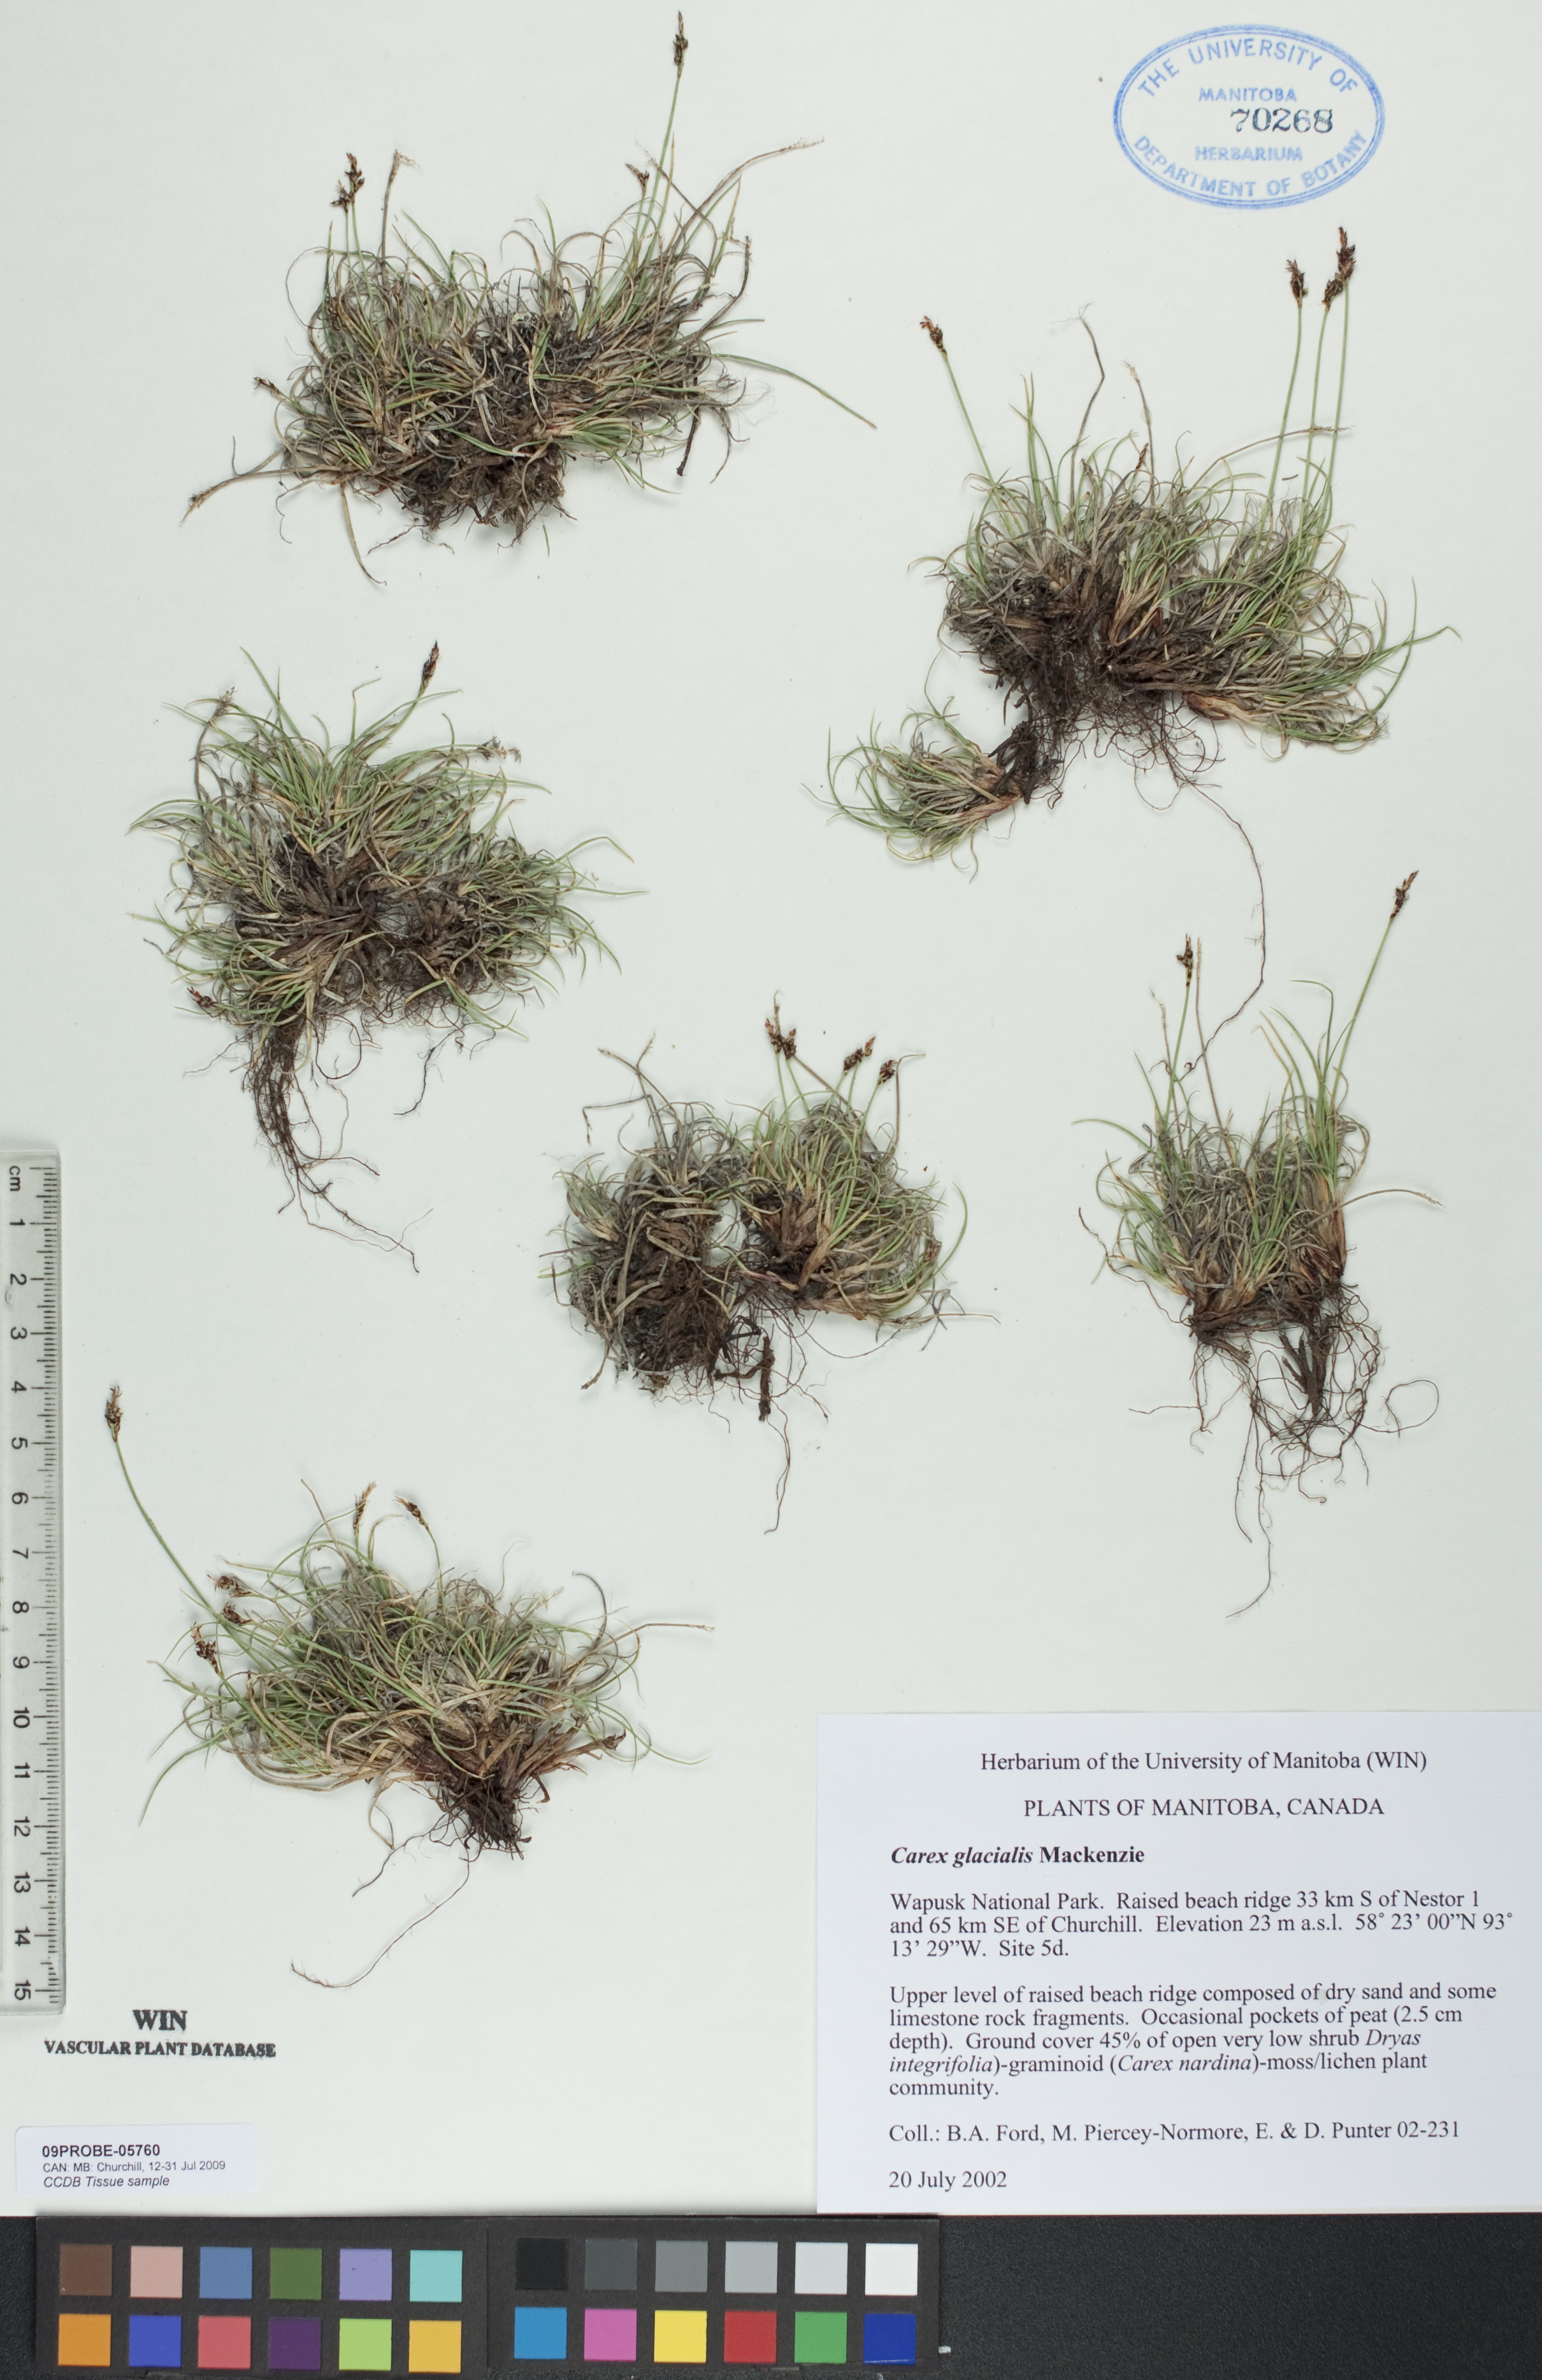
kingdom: Plantae
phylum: Tracheophyta
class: Liliopsida
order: Poales
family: Cyperaceae
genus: Carex
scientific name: Carex glacialis
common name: Newfoundland sedge
